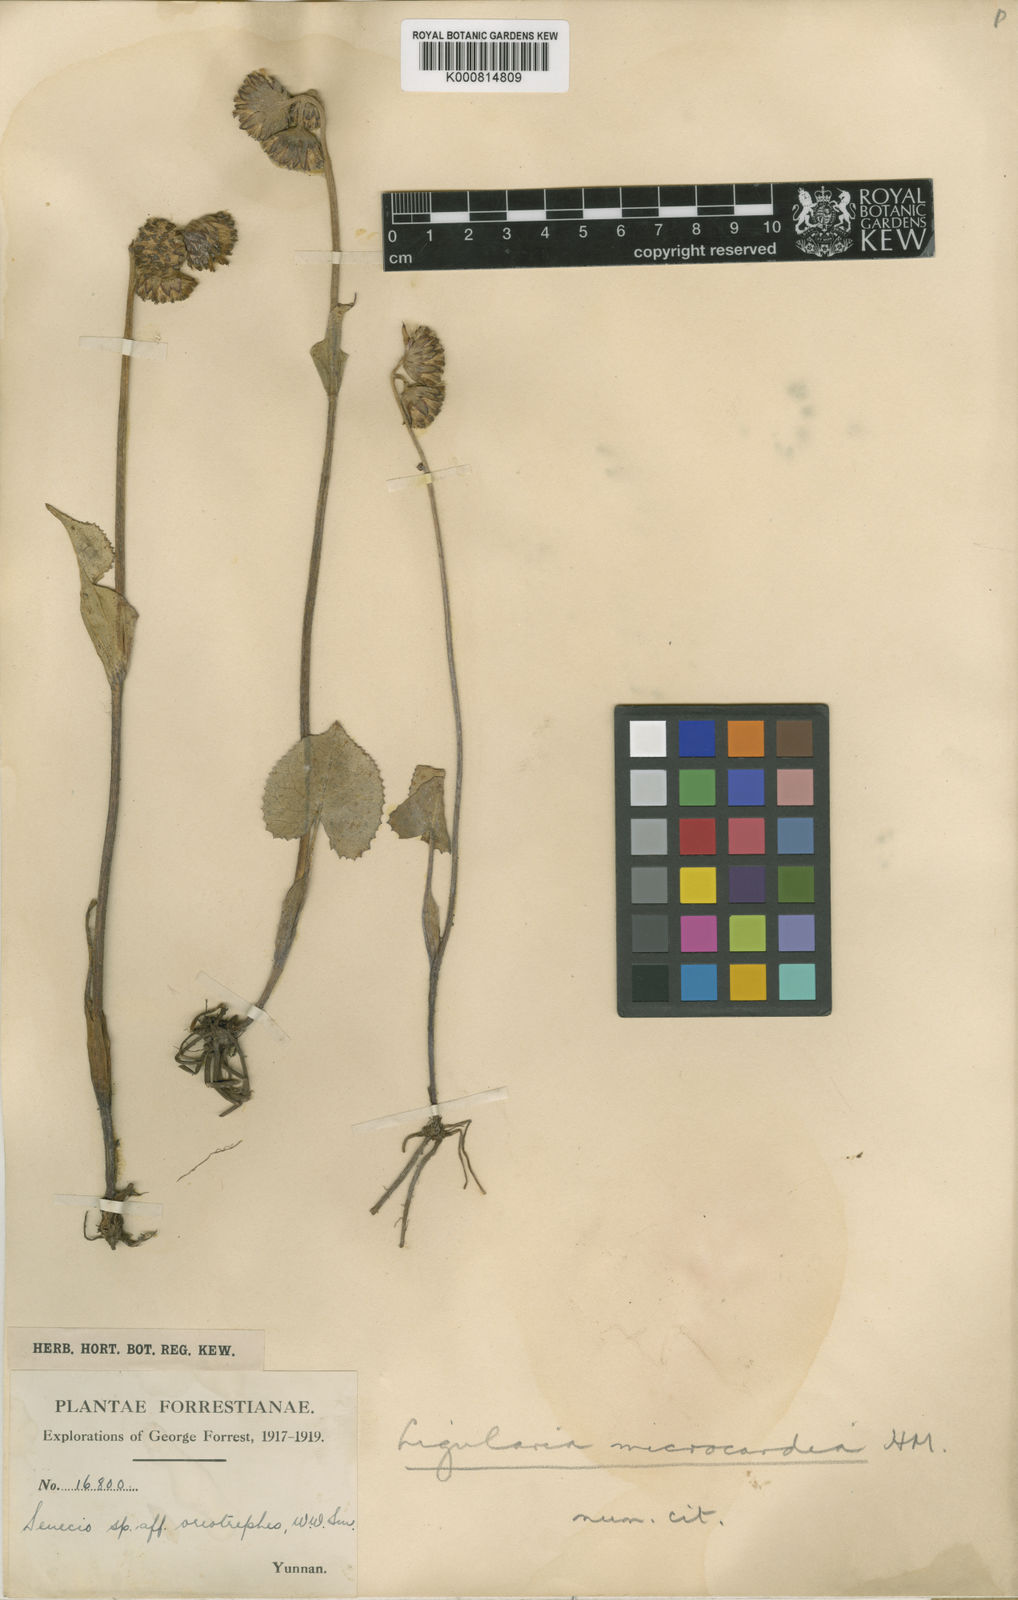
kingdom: Plantae
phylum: Tracheophyta
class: Magnoliopsida
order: Asterales
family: Asteraceae
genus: Ligularia
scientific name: Ligularia microcardia
